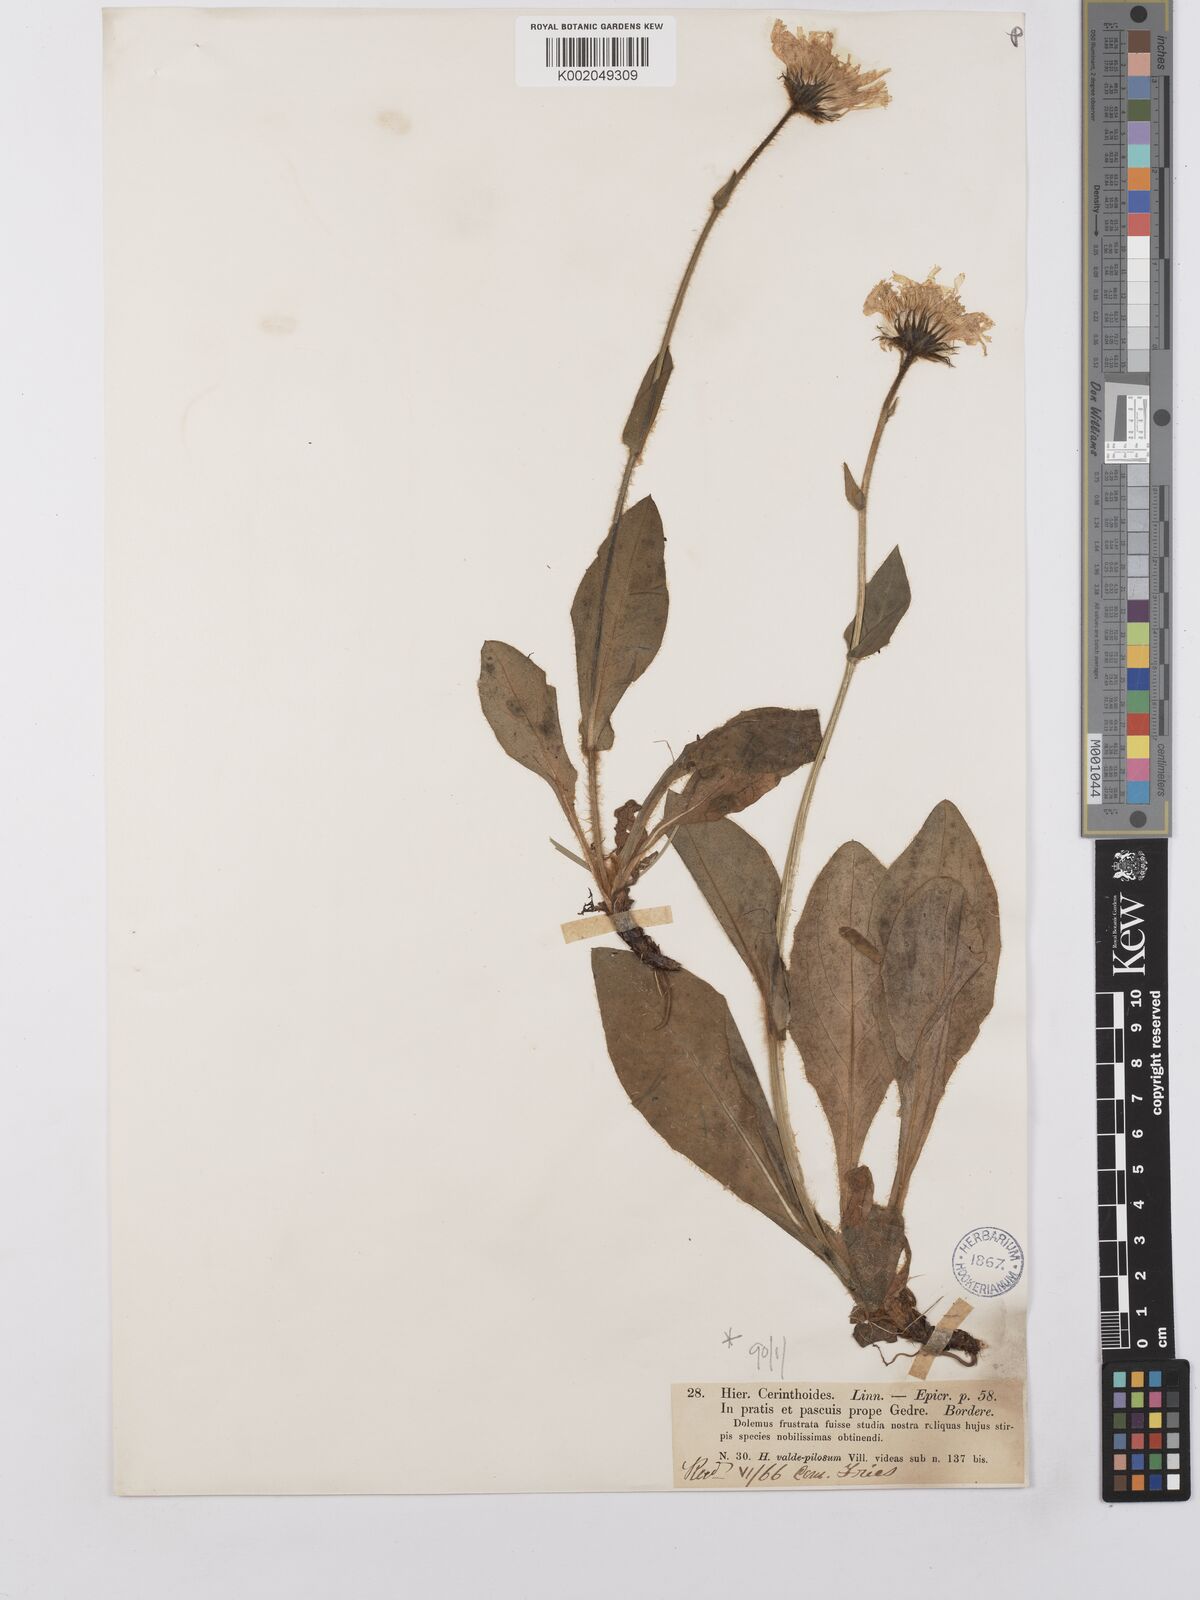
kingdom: Plantae
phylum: Tracheophyta
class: Magnoliopsida
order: Asterales
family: Asteraceae
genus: Hieracium
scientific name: Hieracium cerinthoides
